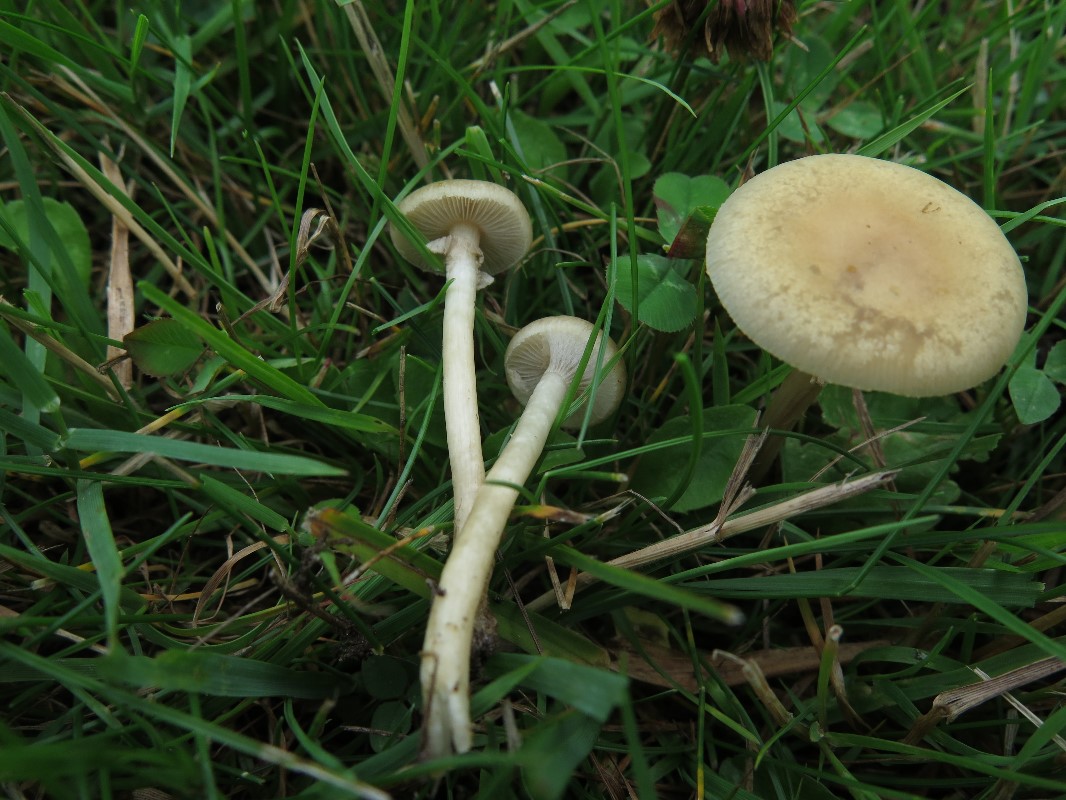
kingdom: Fungi
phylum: Basidiomycota
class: Agaricomycetes
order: Agaricales
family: Strophariaceae
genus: Agrocybe
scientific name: Agrocybe praecox
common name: tidlig agerhat
